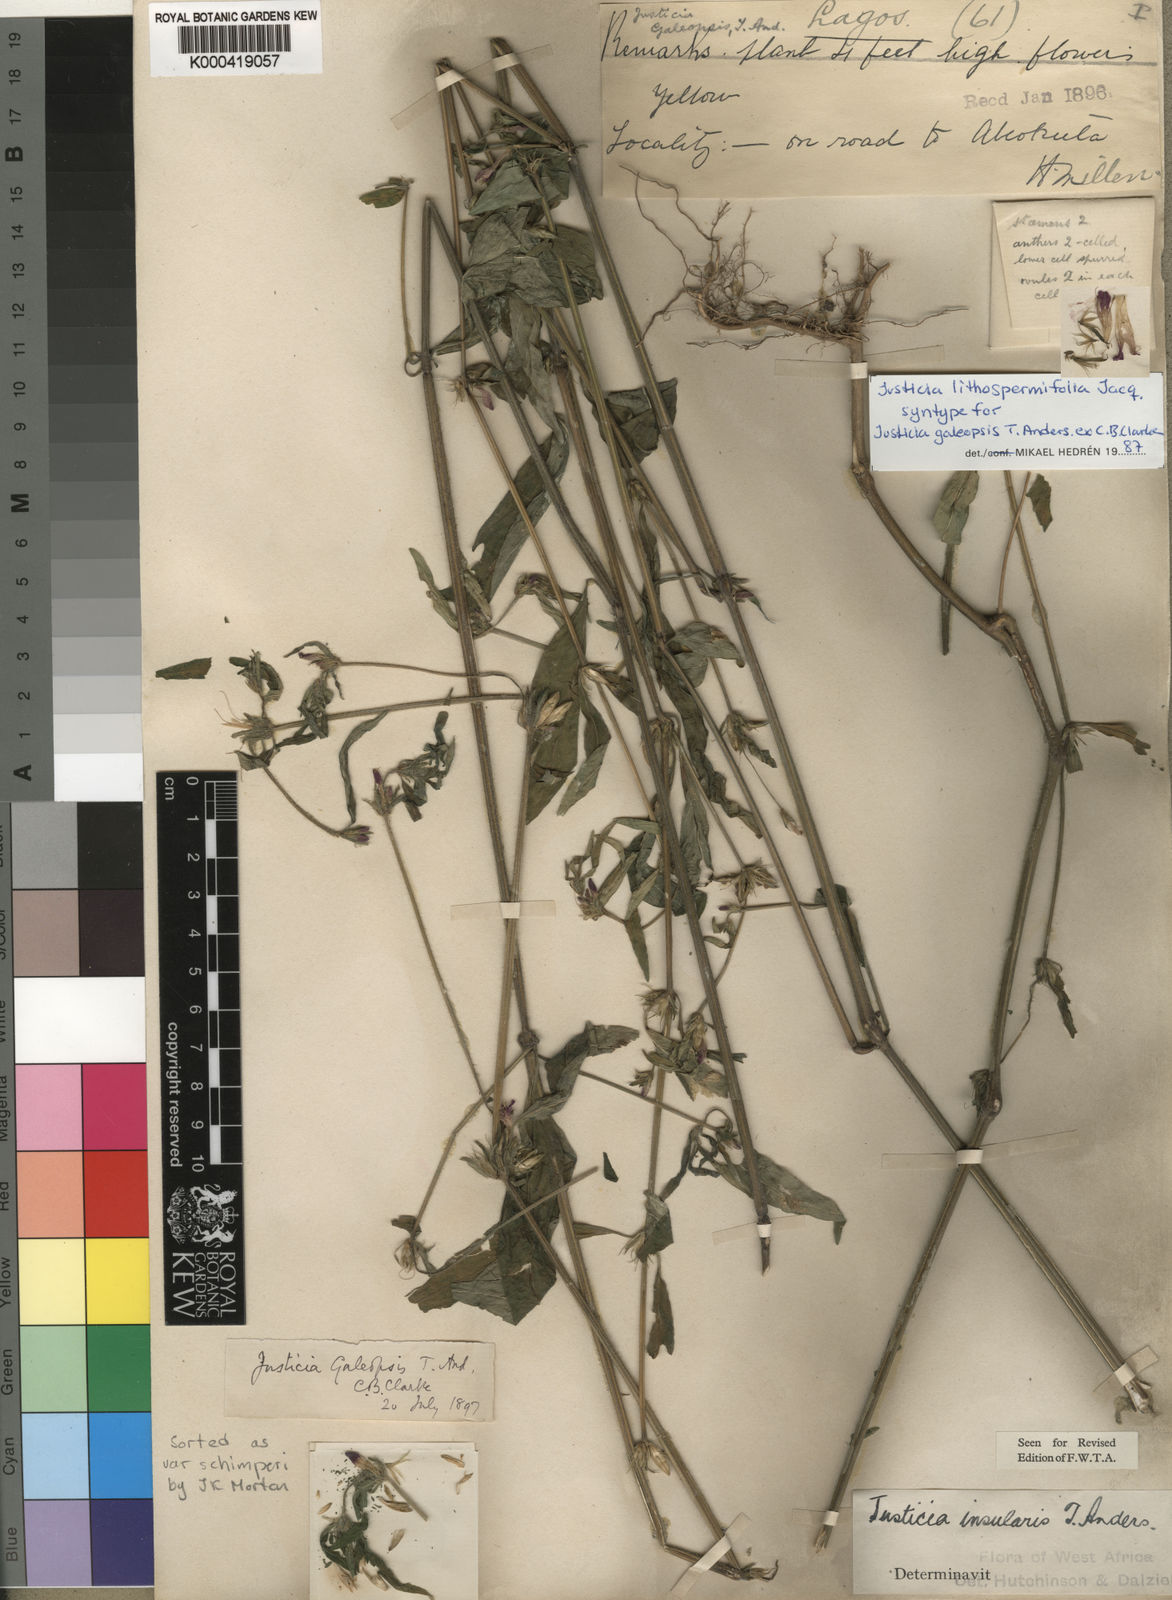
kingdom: Plantae
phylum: Tracheophyta
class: Magnoliopsida
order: Lamiales
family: Acanthaceae
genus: Justicia
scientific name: Justicia ladanoides
